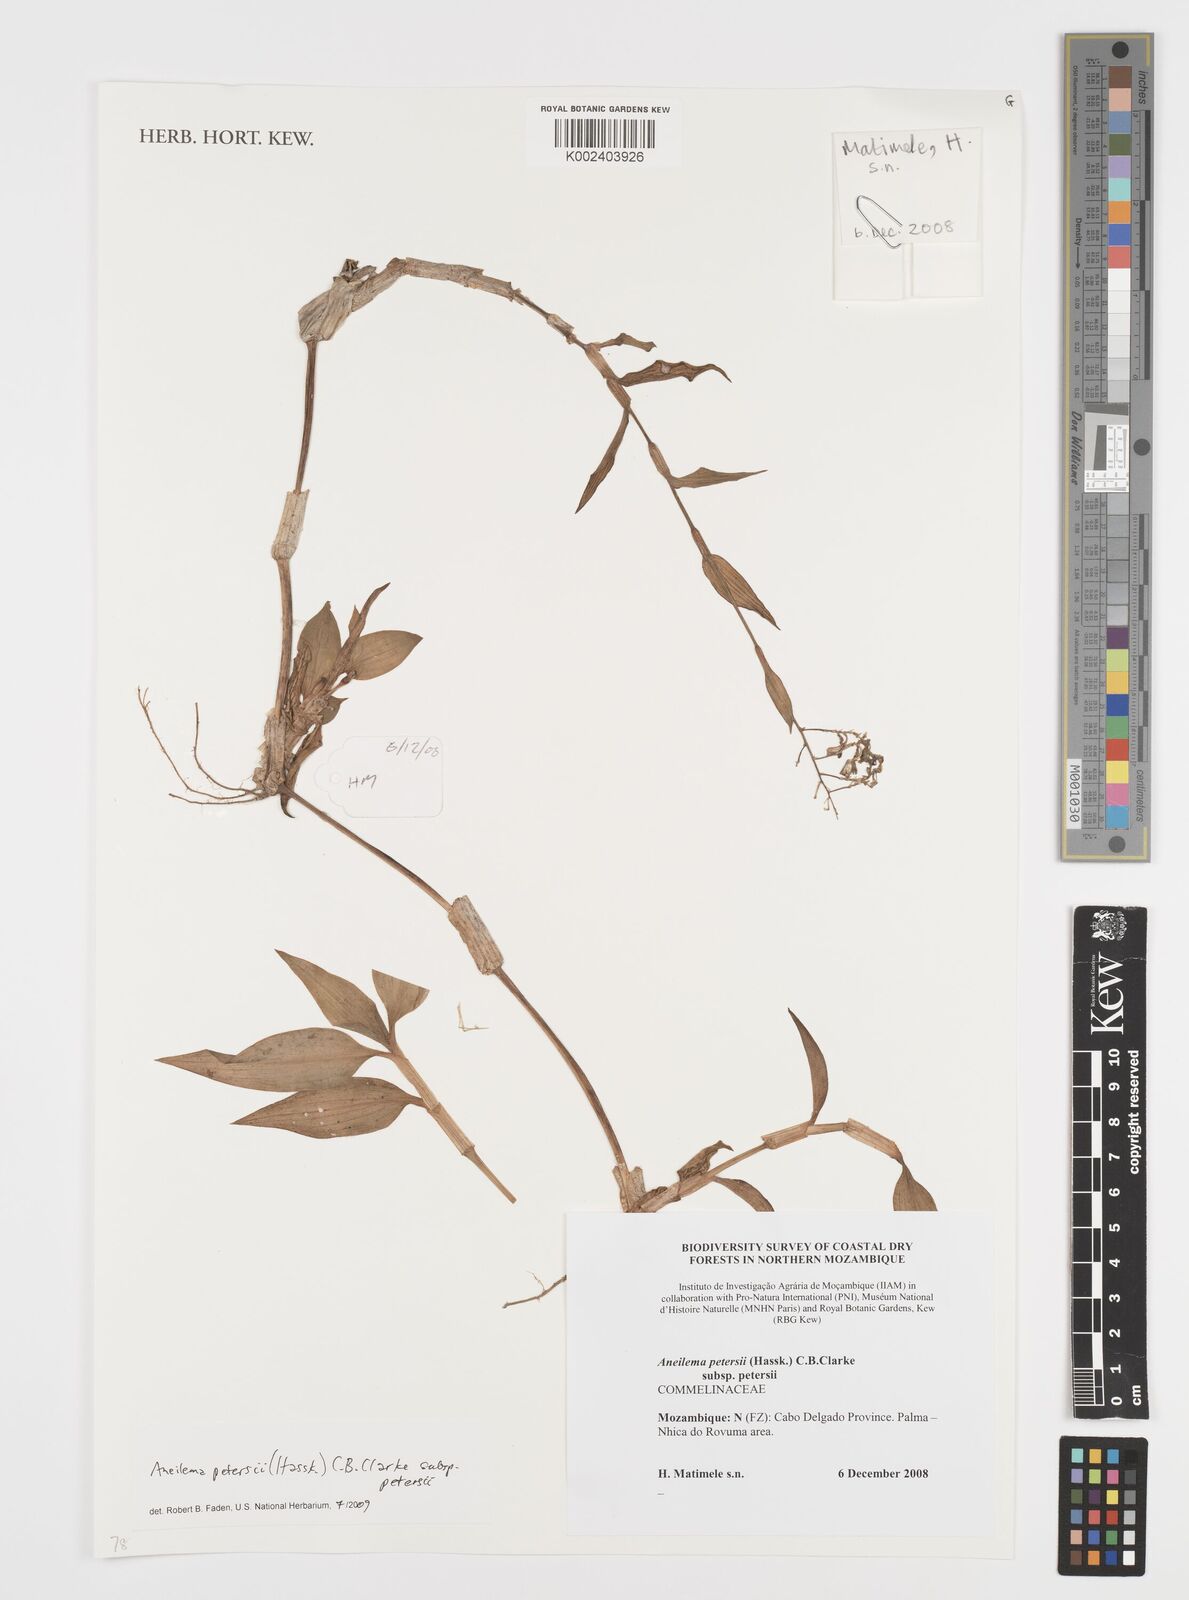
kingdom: Plantae
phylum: Tracheophyta
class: Liliopsida
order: Commelinales
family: Commelinaceae
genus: Aneilema
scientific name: Aneilema petersii
